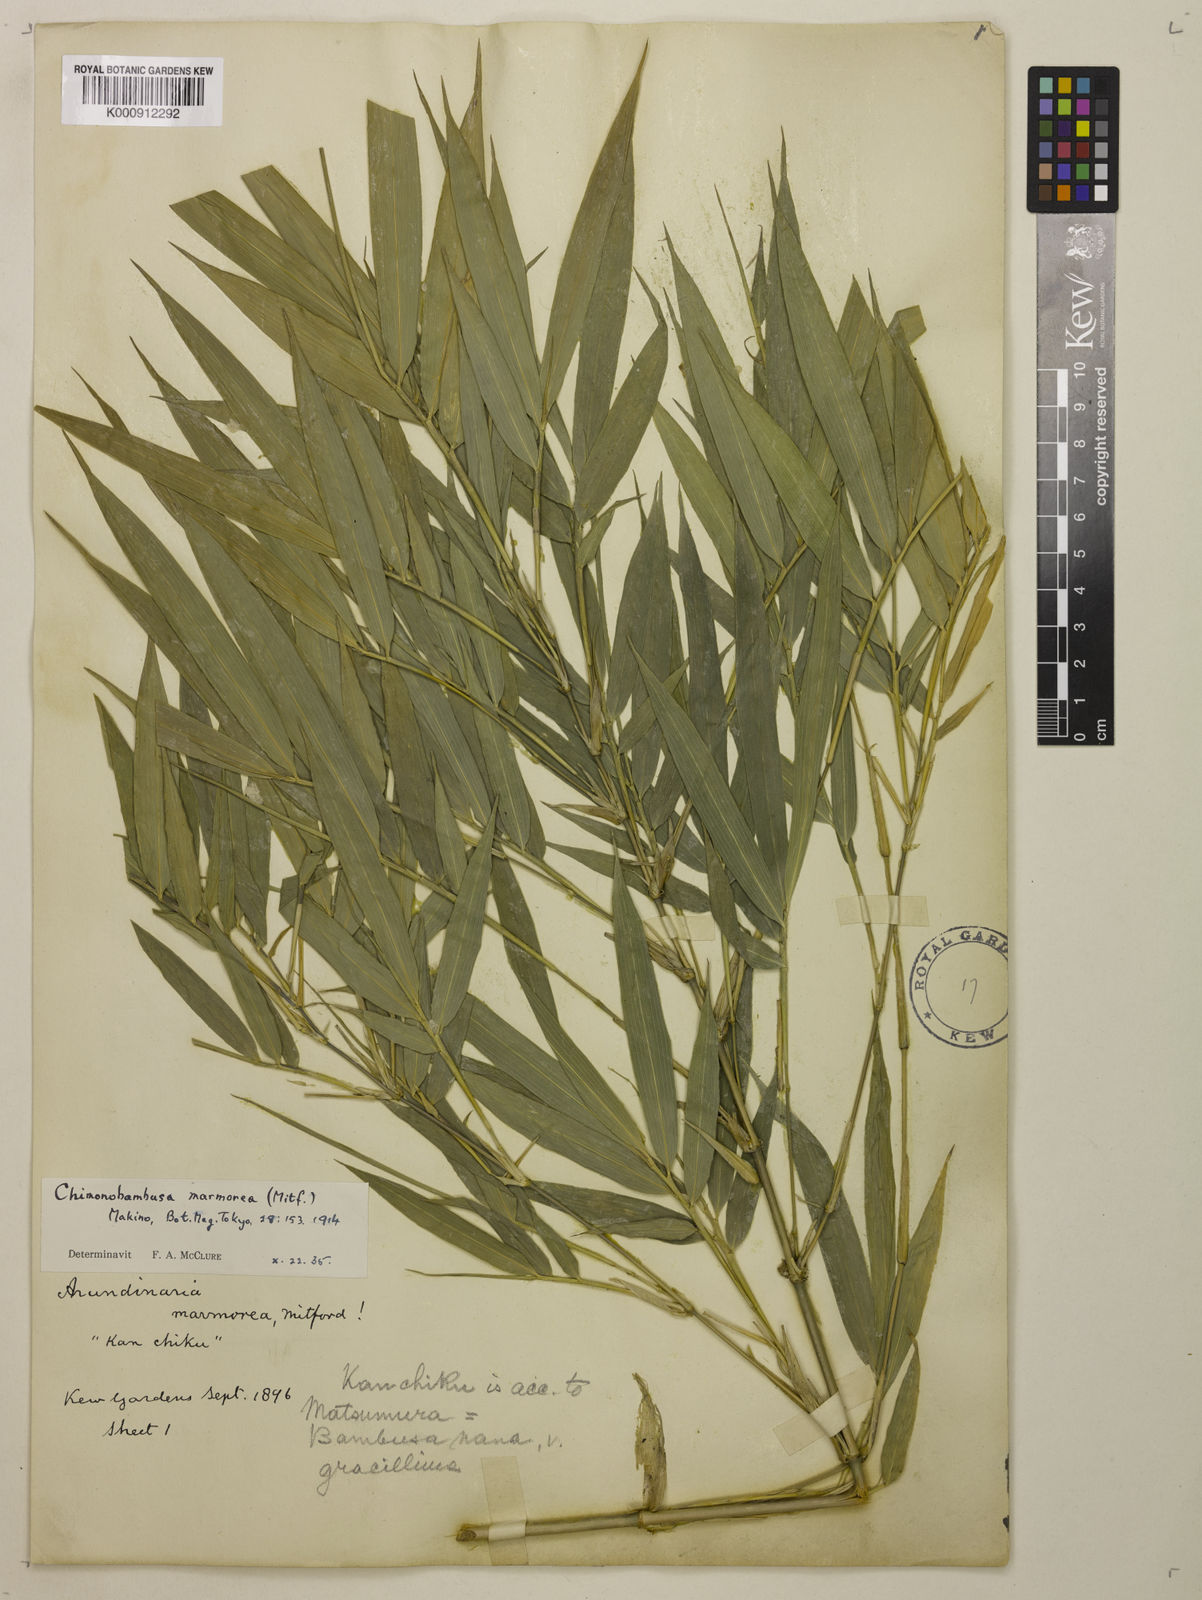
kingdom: Plantae
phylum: Tracheophyta
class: Liliopsida
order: Poales
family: Poaceae
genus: Chimonobambusa
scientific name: Chimonobambusa marmorea
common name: Marbled bamboo
